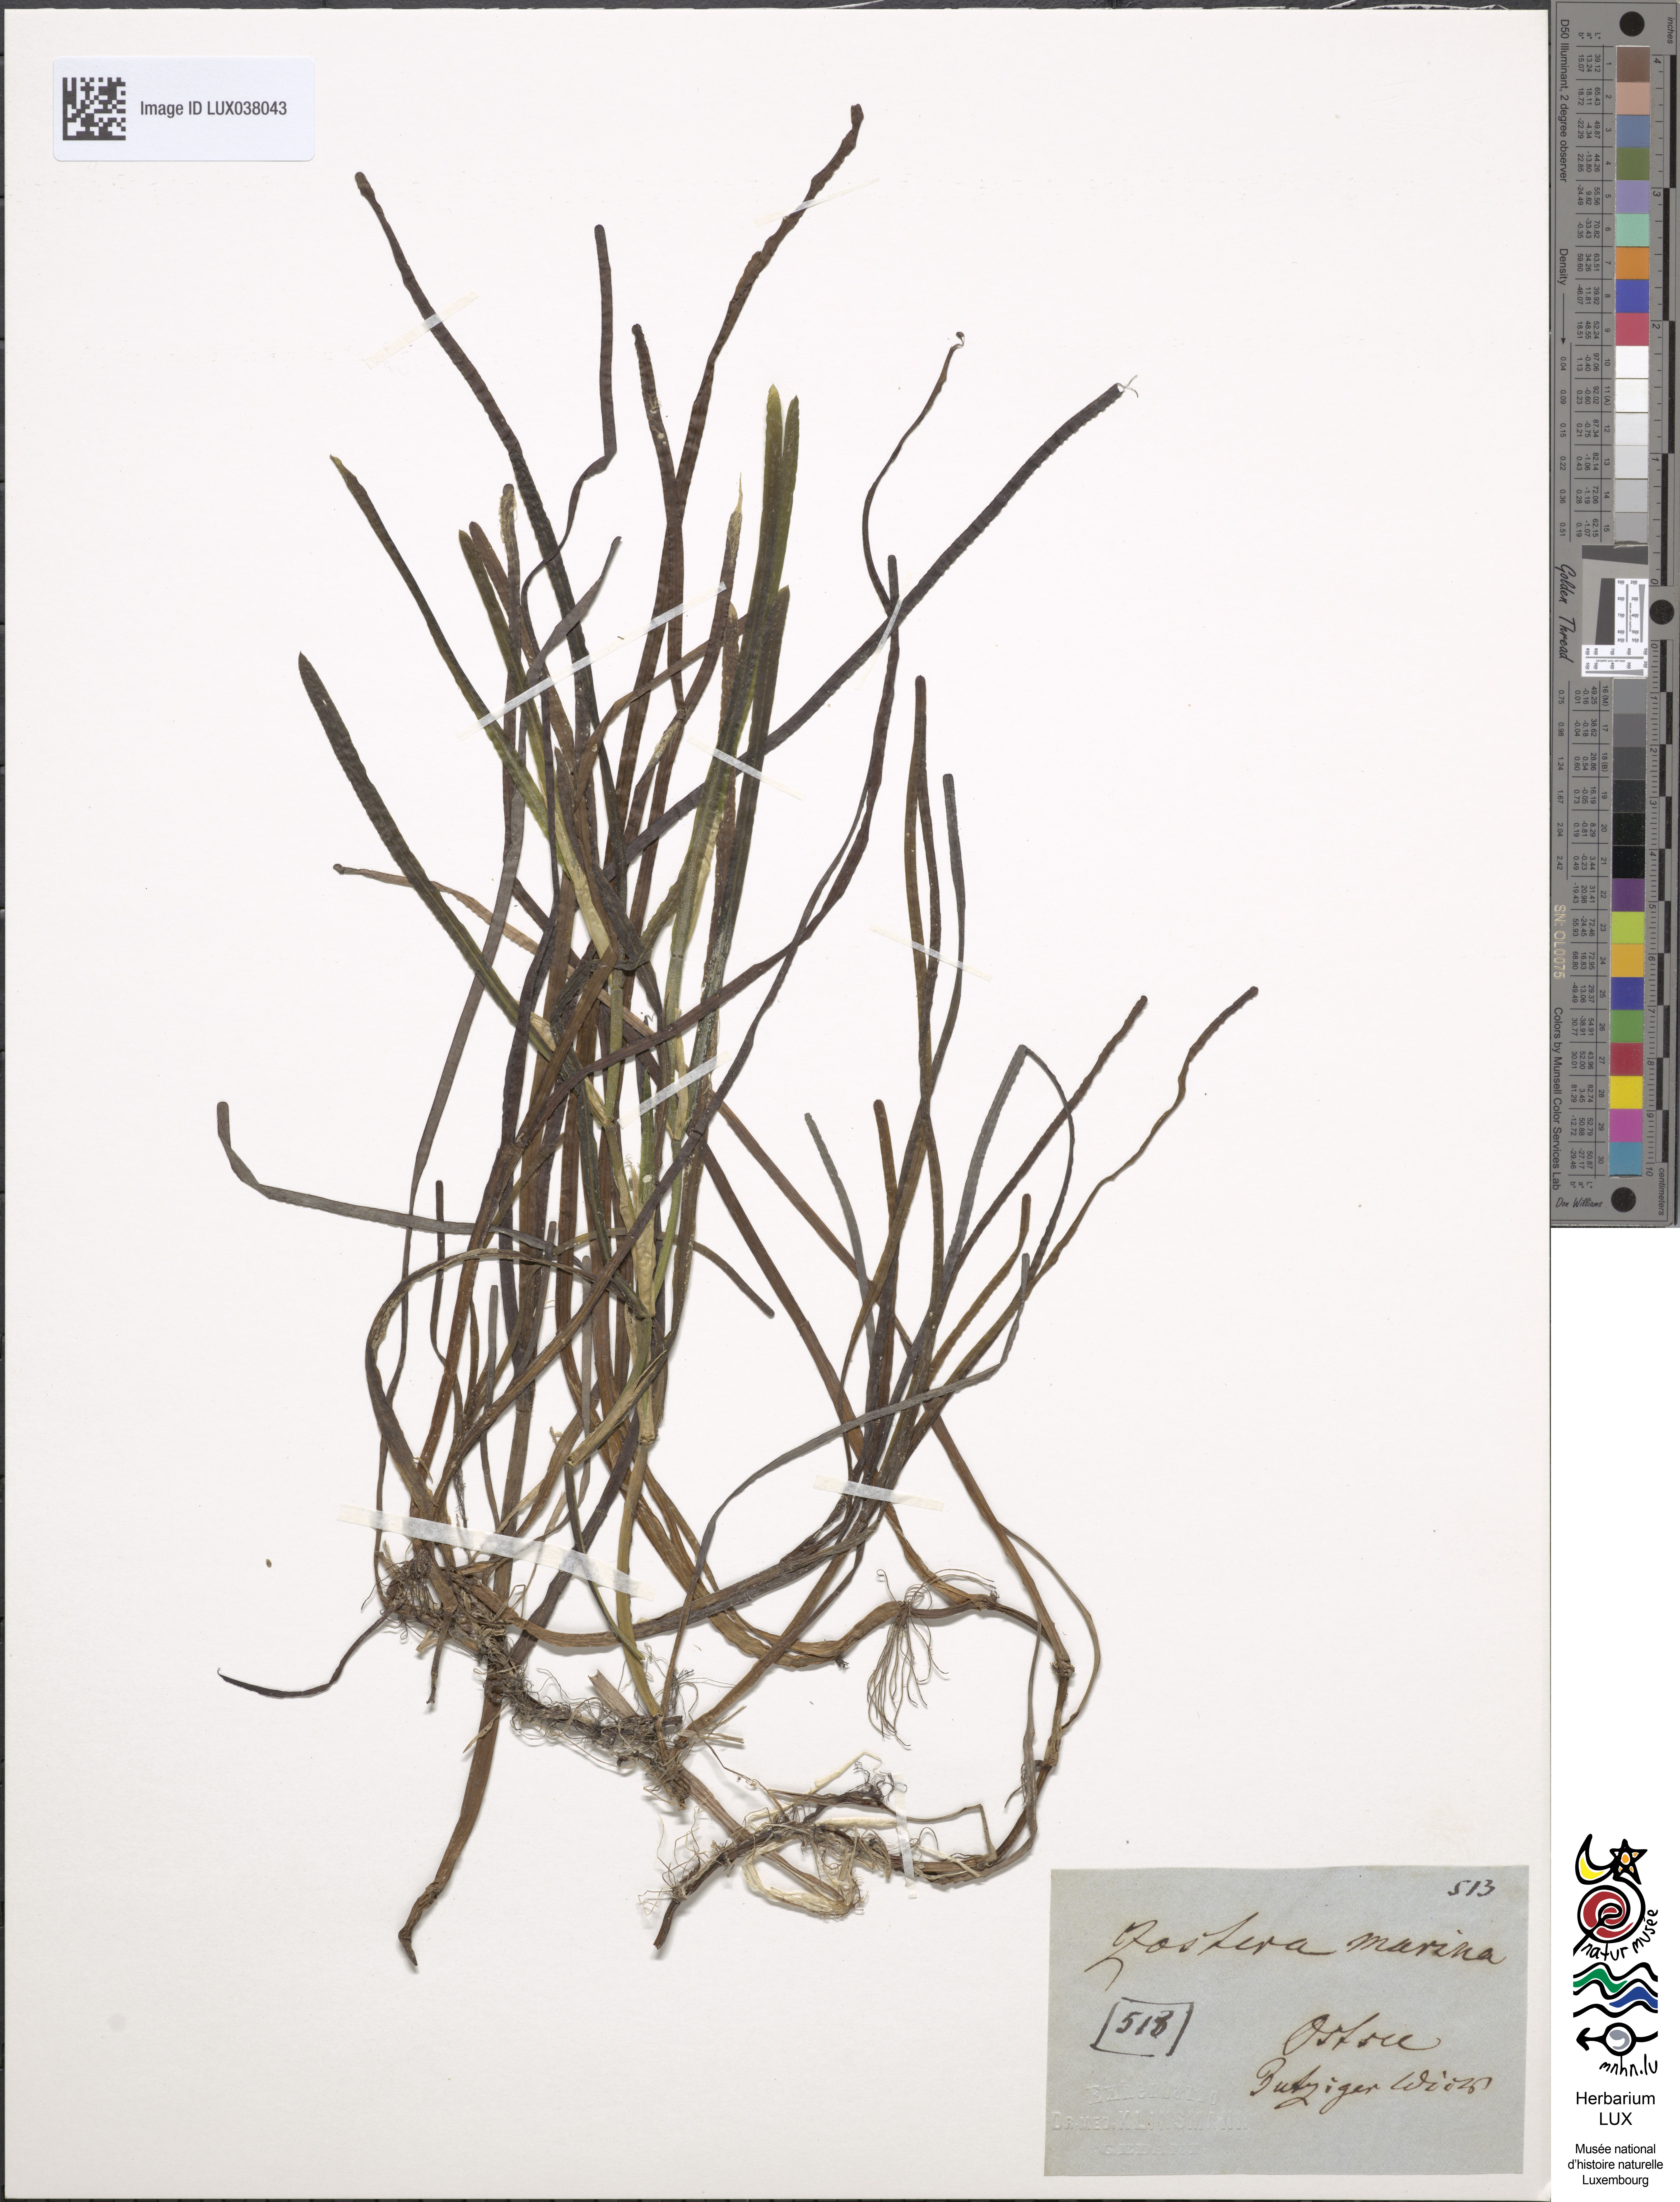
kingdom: Plantae
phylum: Tracheophyta
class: Liliopsida
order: Alismatales
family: Zosteraceae
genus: Zostera
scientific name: Zostera marina
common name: Eelgrass
